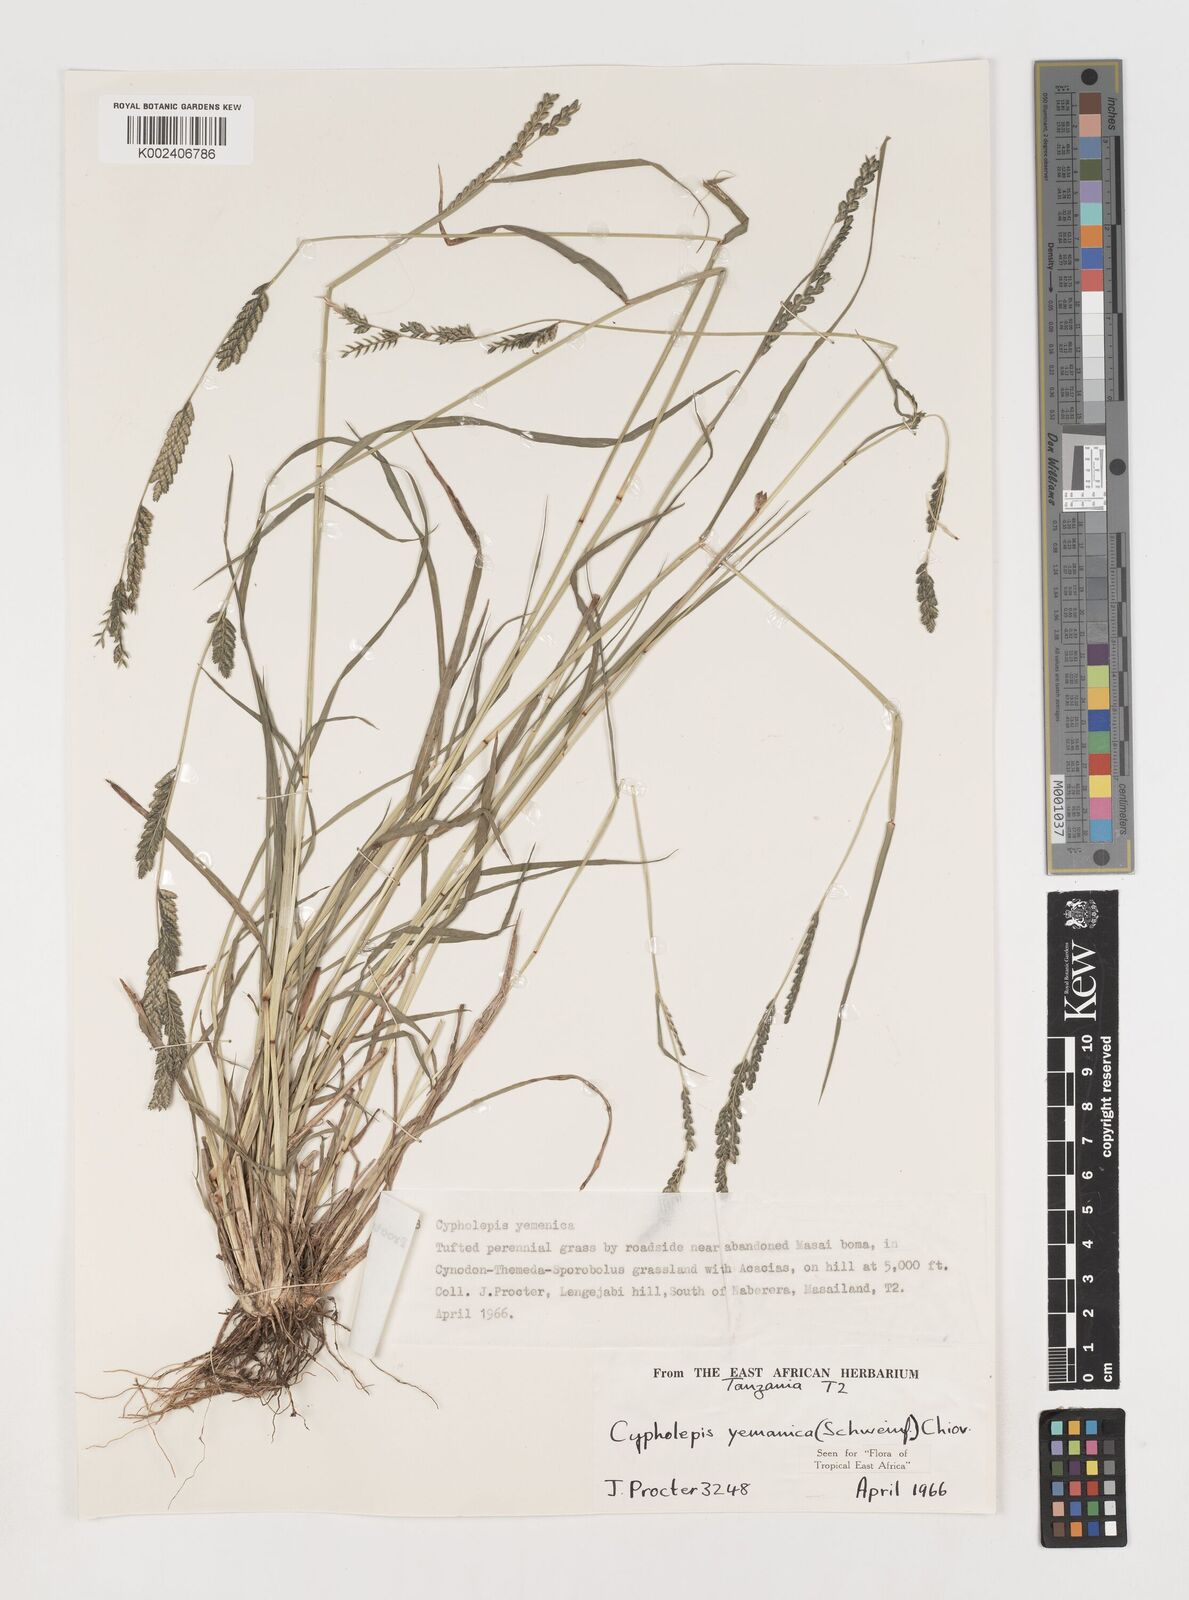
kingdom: Plantae
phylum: Tracheophyta
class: Liliopsida
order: Poales
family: Poaceae
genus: Disakisperma
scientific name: Disakisperma yemenicum
